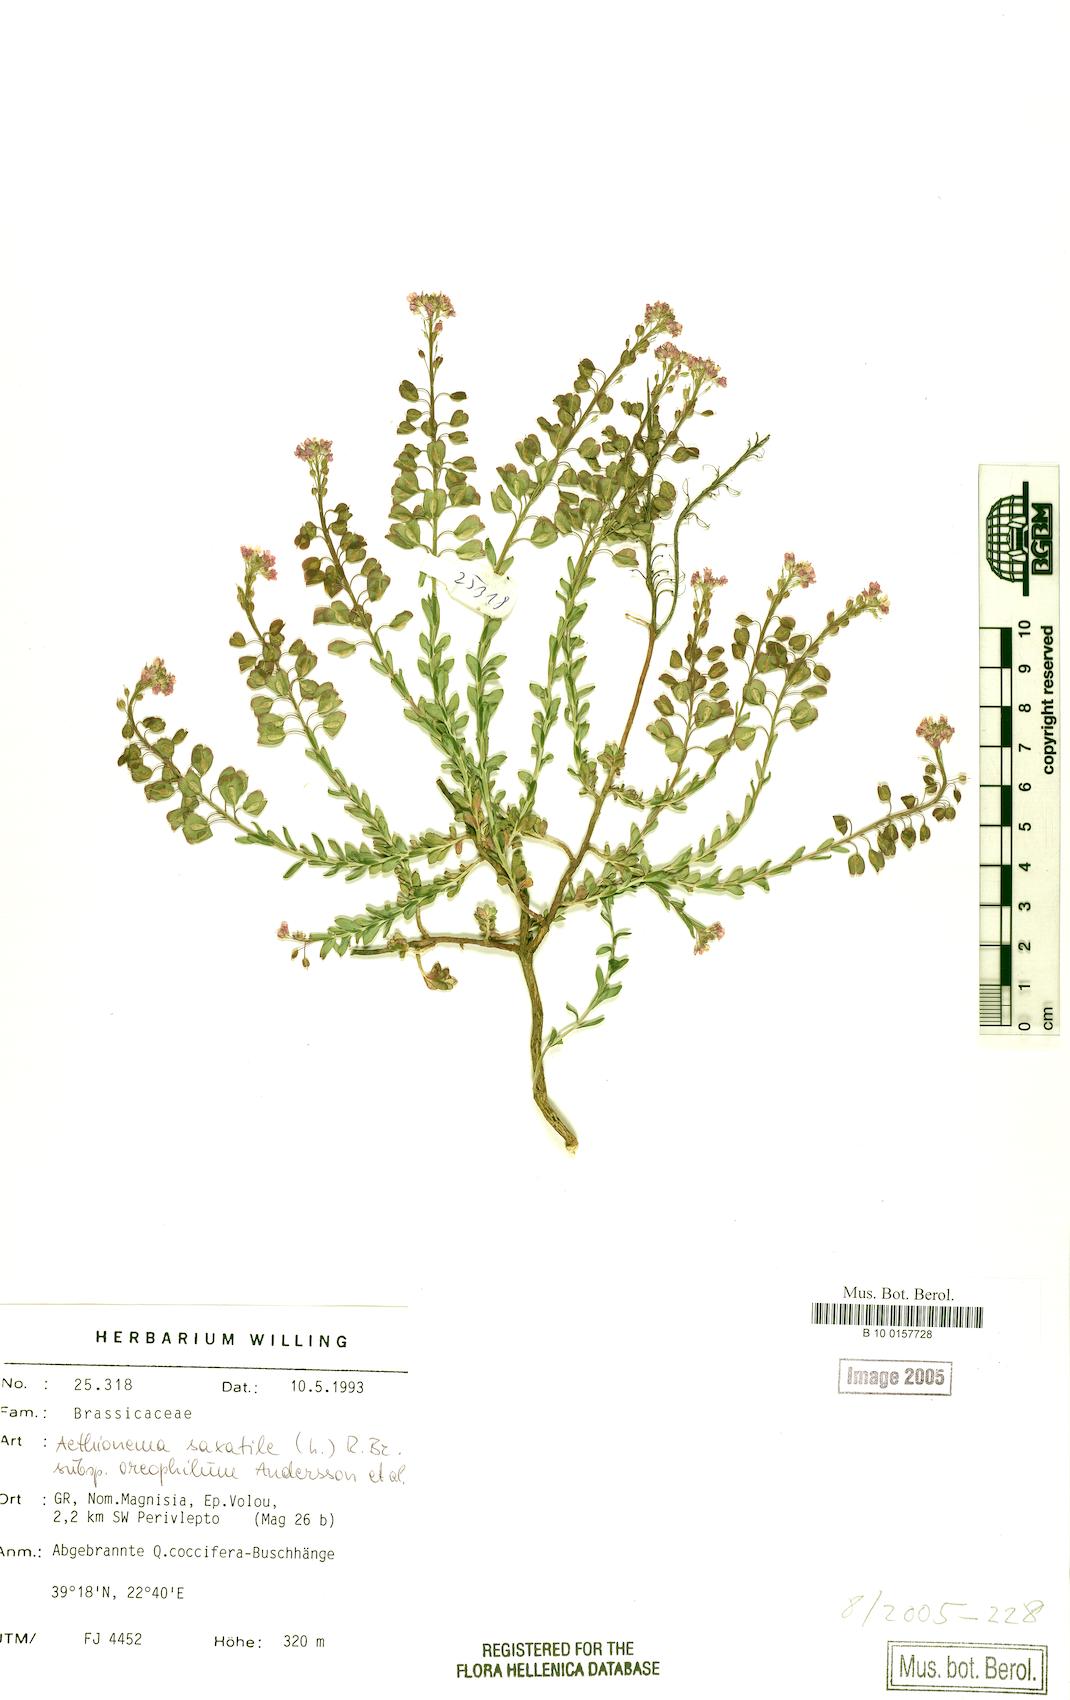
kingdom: Plantae
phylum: Tracheophyta
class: Magnoliopsida
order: Brassicales
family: Brassicaceae
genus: Aethionema
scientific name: Aethionema saxatile
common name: Burnt candytuft
